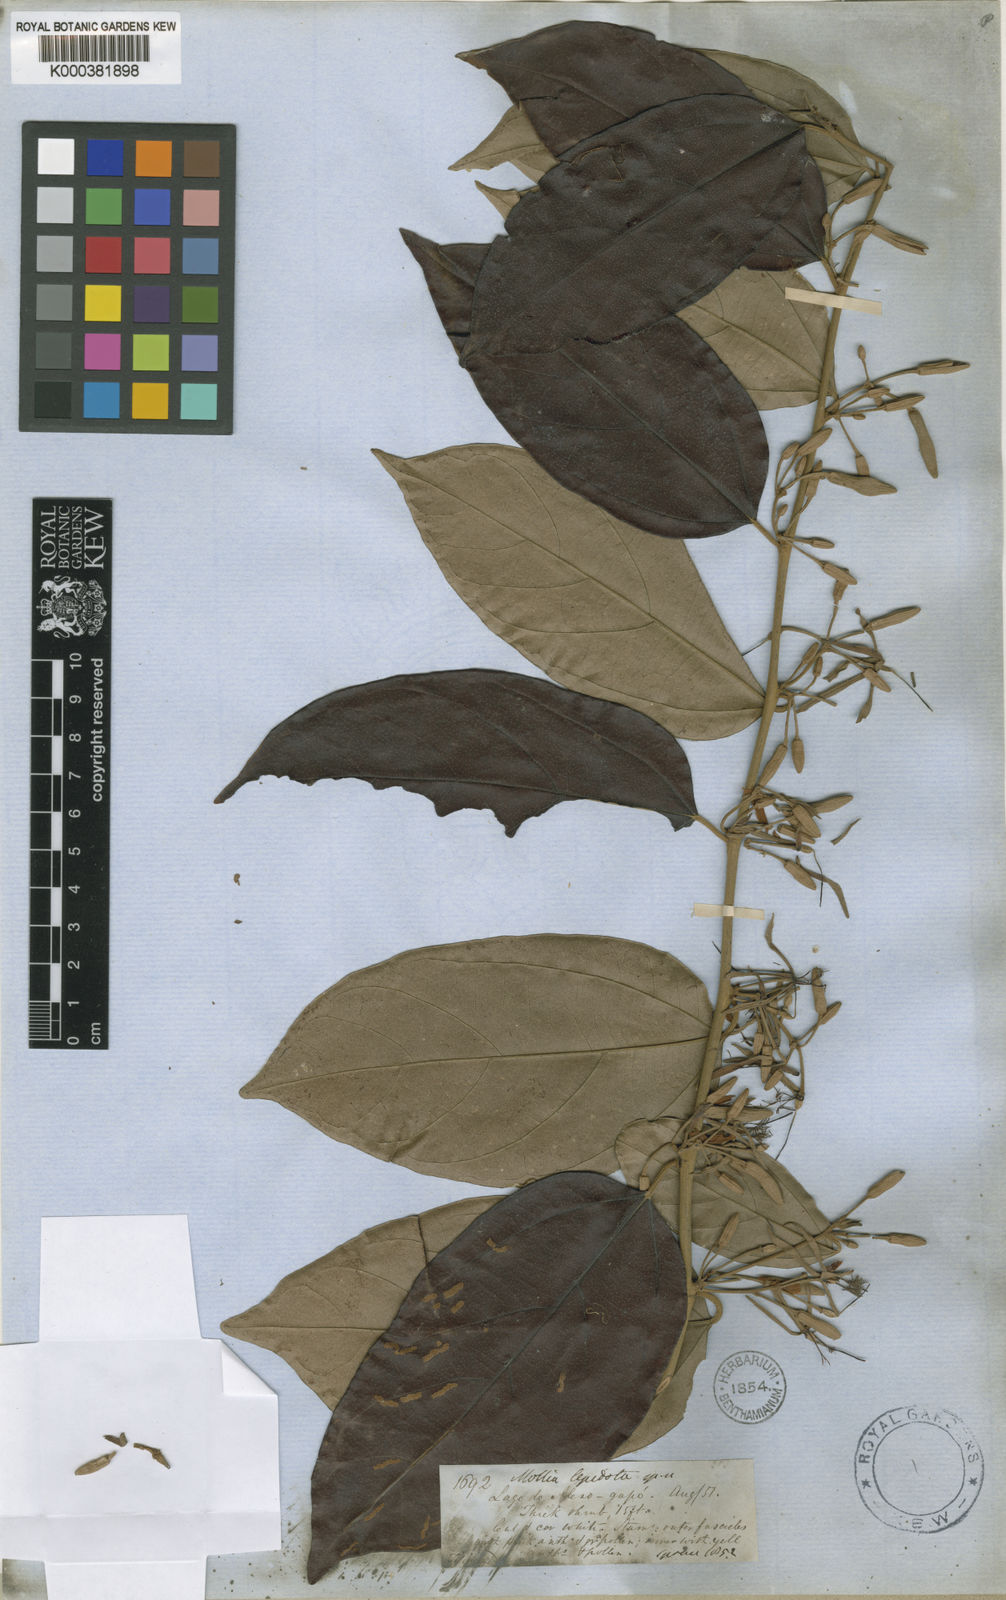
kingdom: Plantae
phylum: Tracheophyta
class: Magnoliopsida
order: Malvales
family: Malvaceae
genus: Mollia
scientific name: Mollia lepidota
